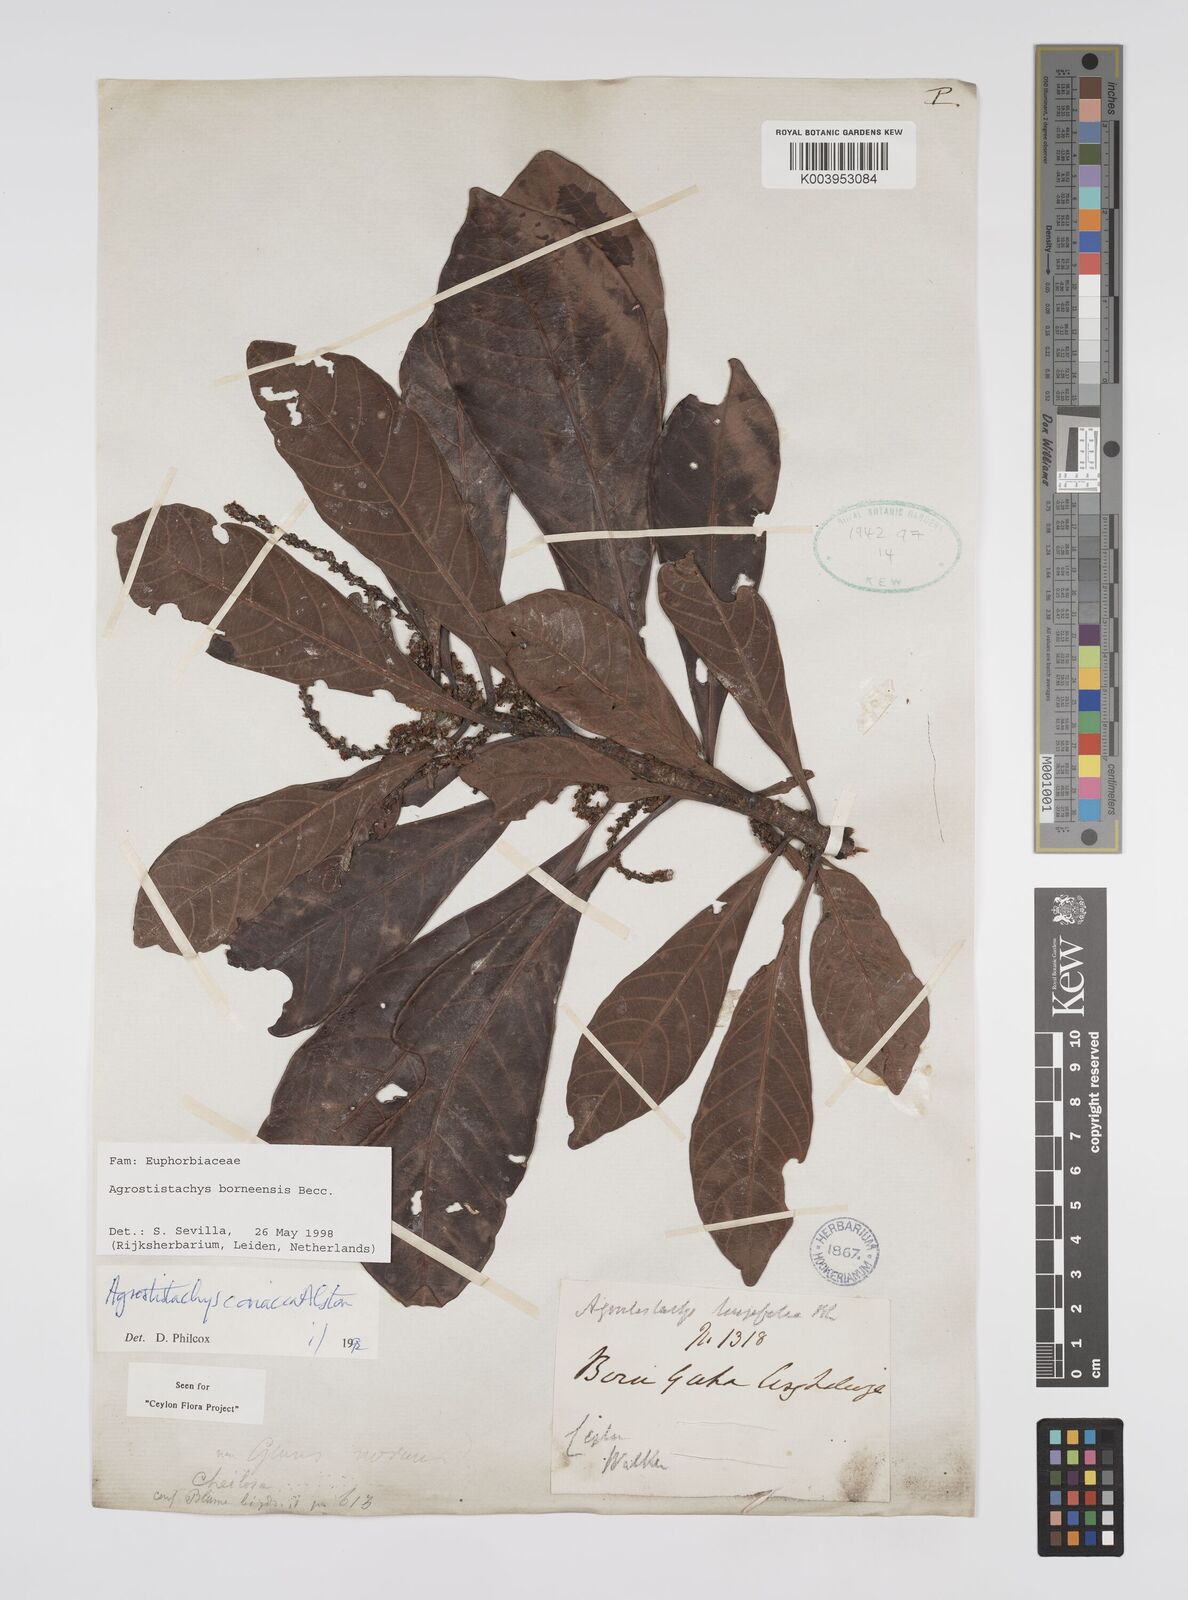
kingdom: Plantae
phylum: Tracheophyta
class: Magnoliopsida
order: Malpighiales
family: Euphorbiaceae
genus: Agrostistachys
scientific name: Agrostistachys borneensis
